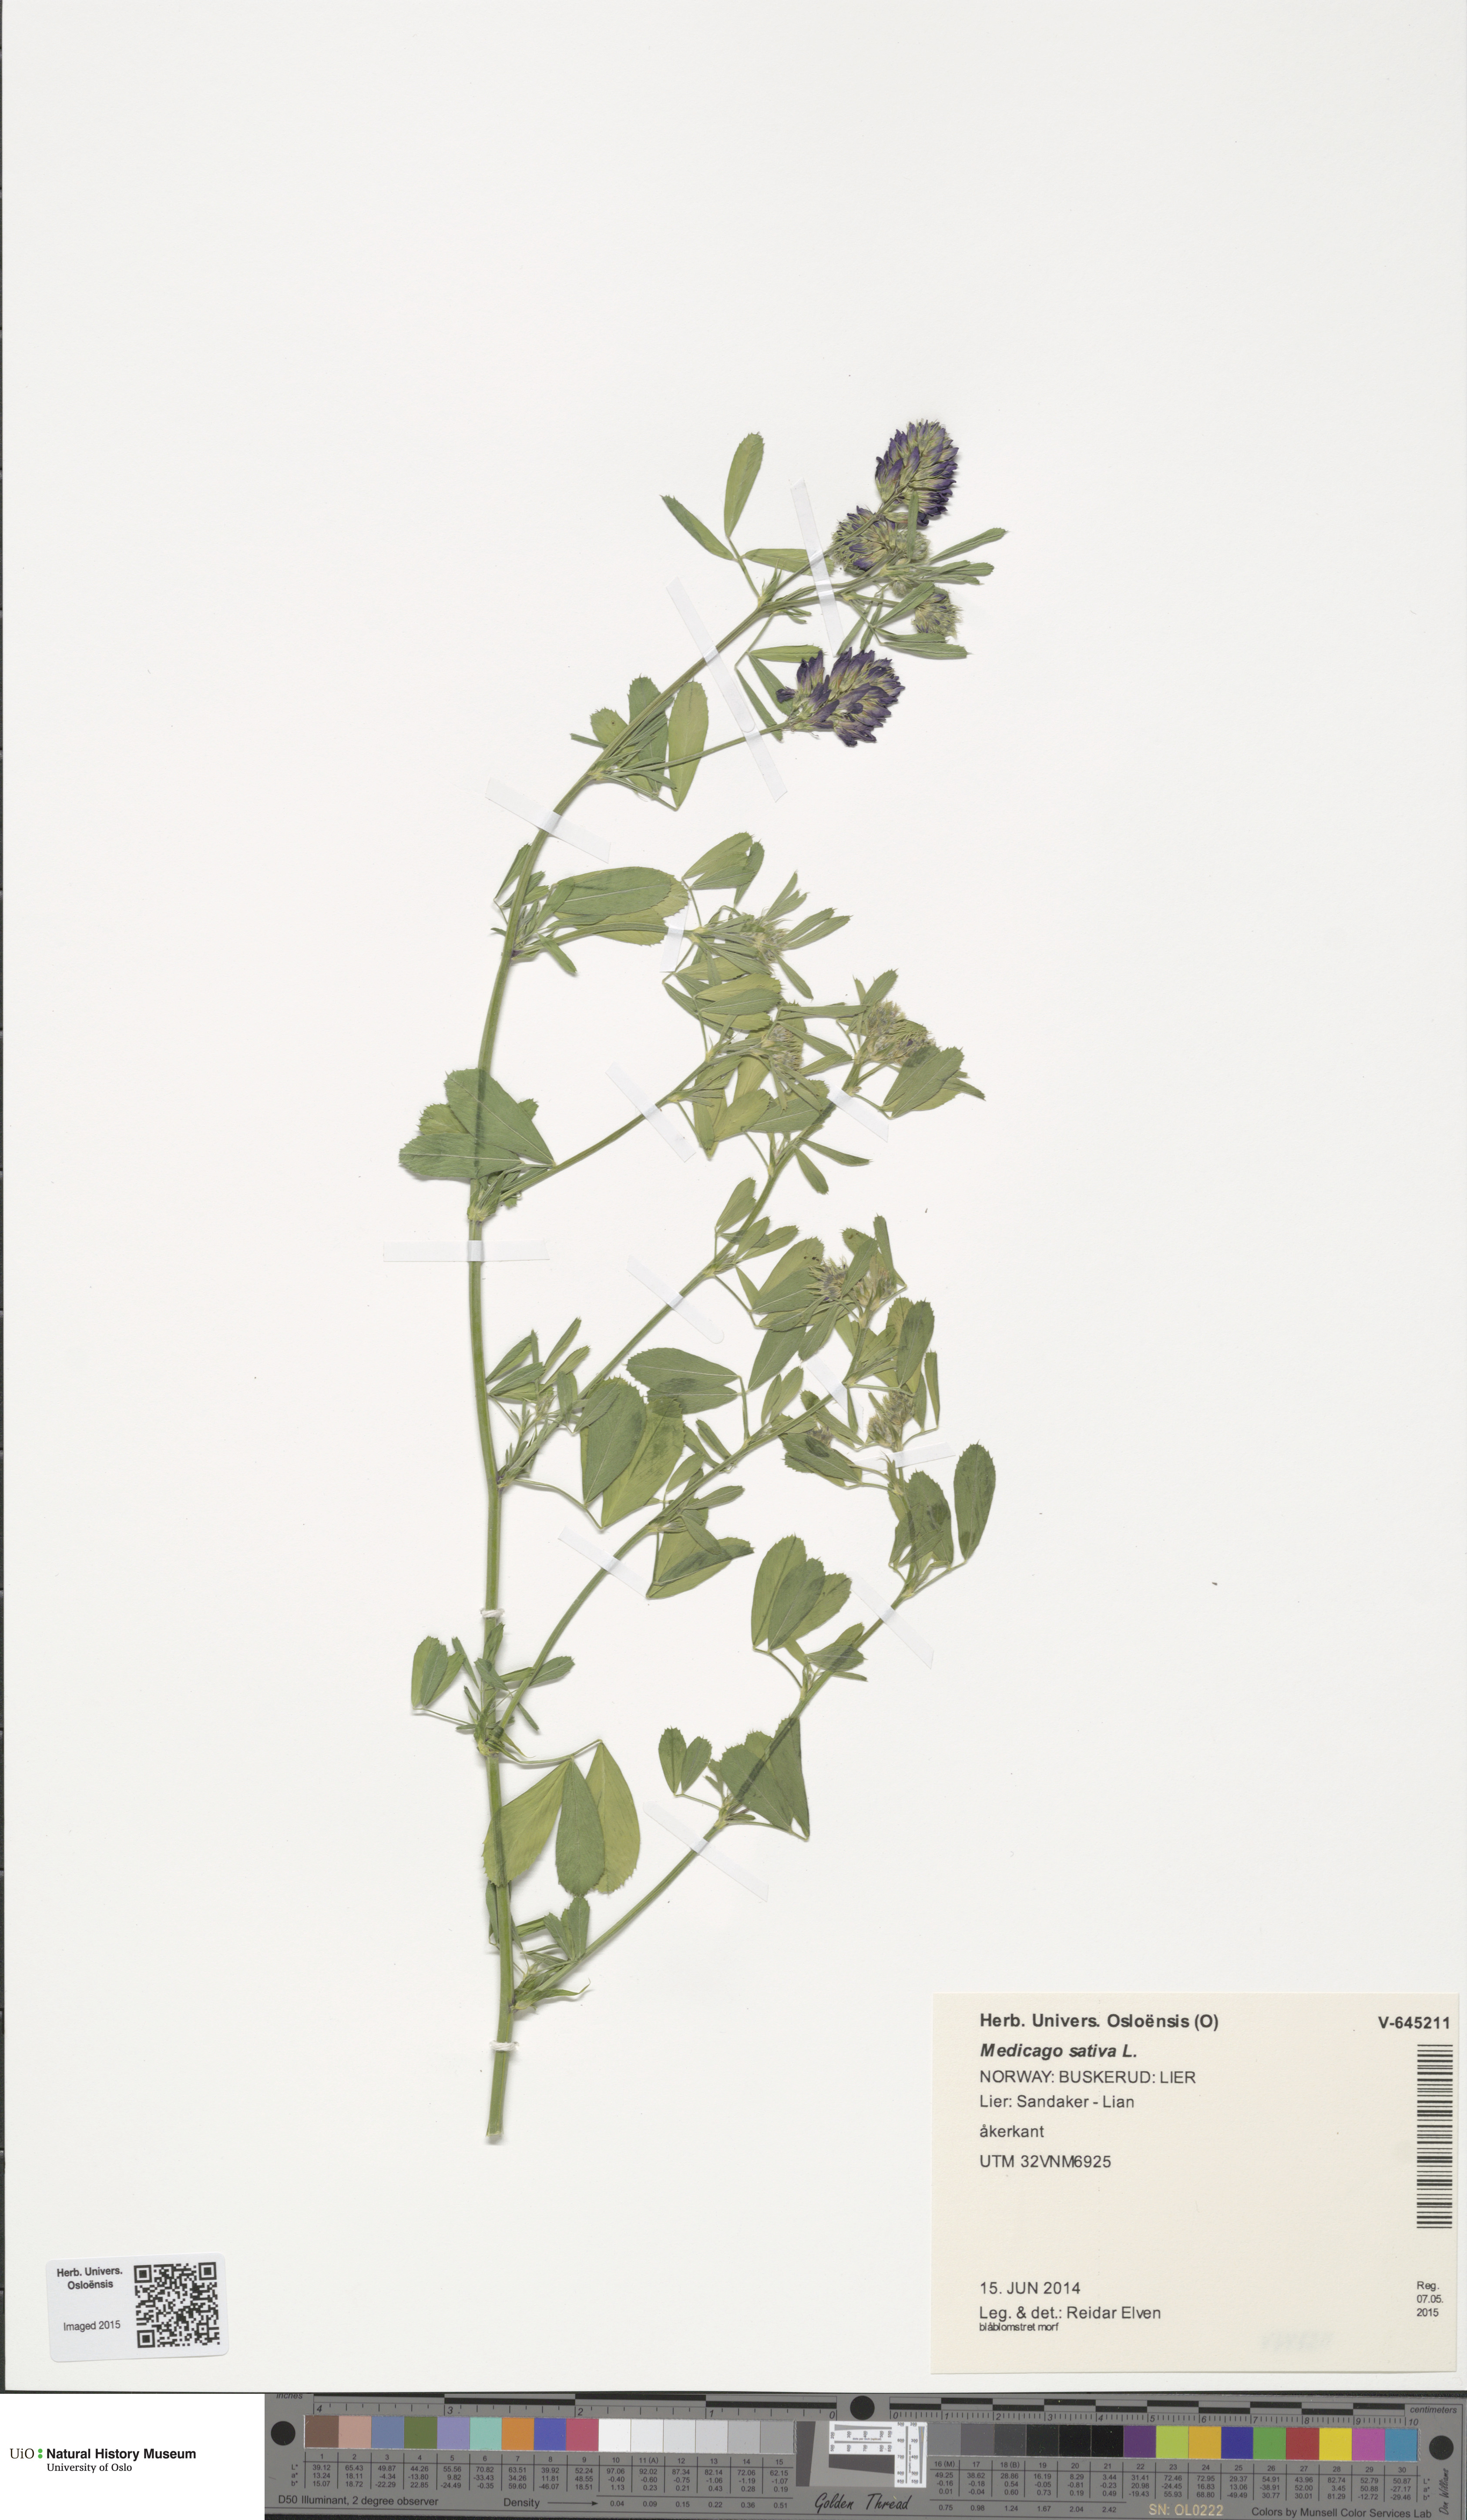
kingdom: Plantae
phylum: Tracheophyta
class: Magnoliopsida
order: Fabales
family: Fabaceae
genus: Medicago
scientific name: Medicago sativa
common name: Alfalfa
